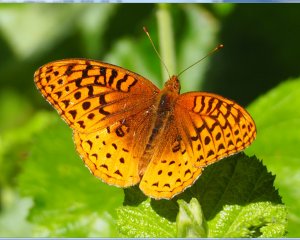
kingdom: Animalia
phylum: Arthropoda
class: Insecta
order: Lepidoptera
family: Nymphalidae
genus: Speyeria
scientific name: Speyeria cybele
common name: Great Spangled Fritillary
